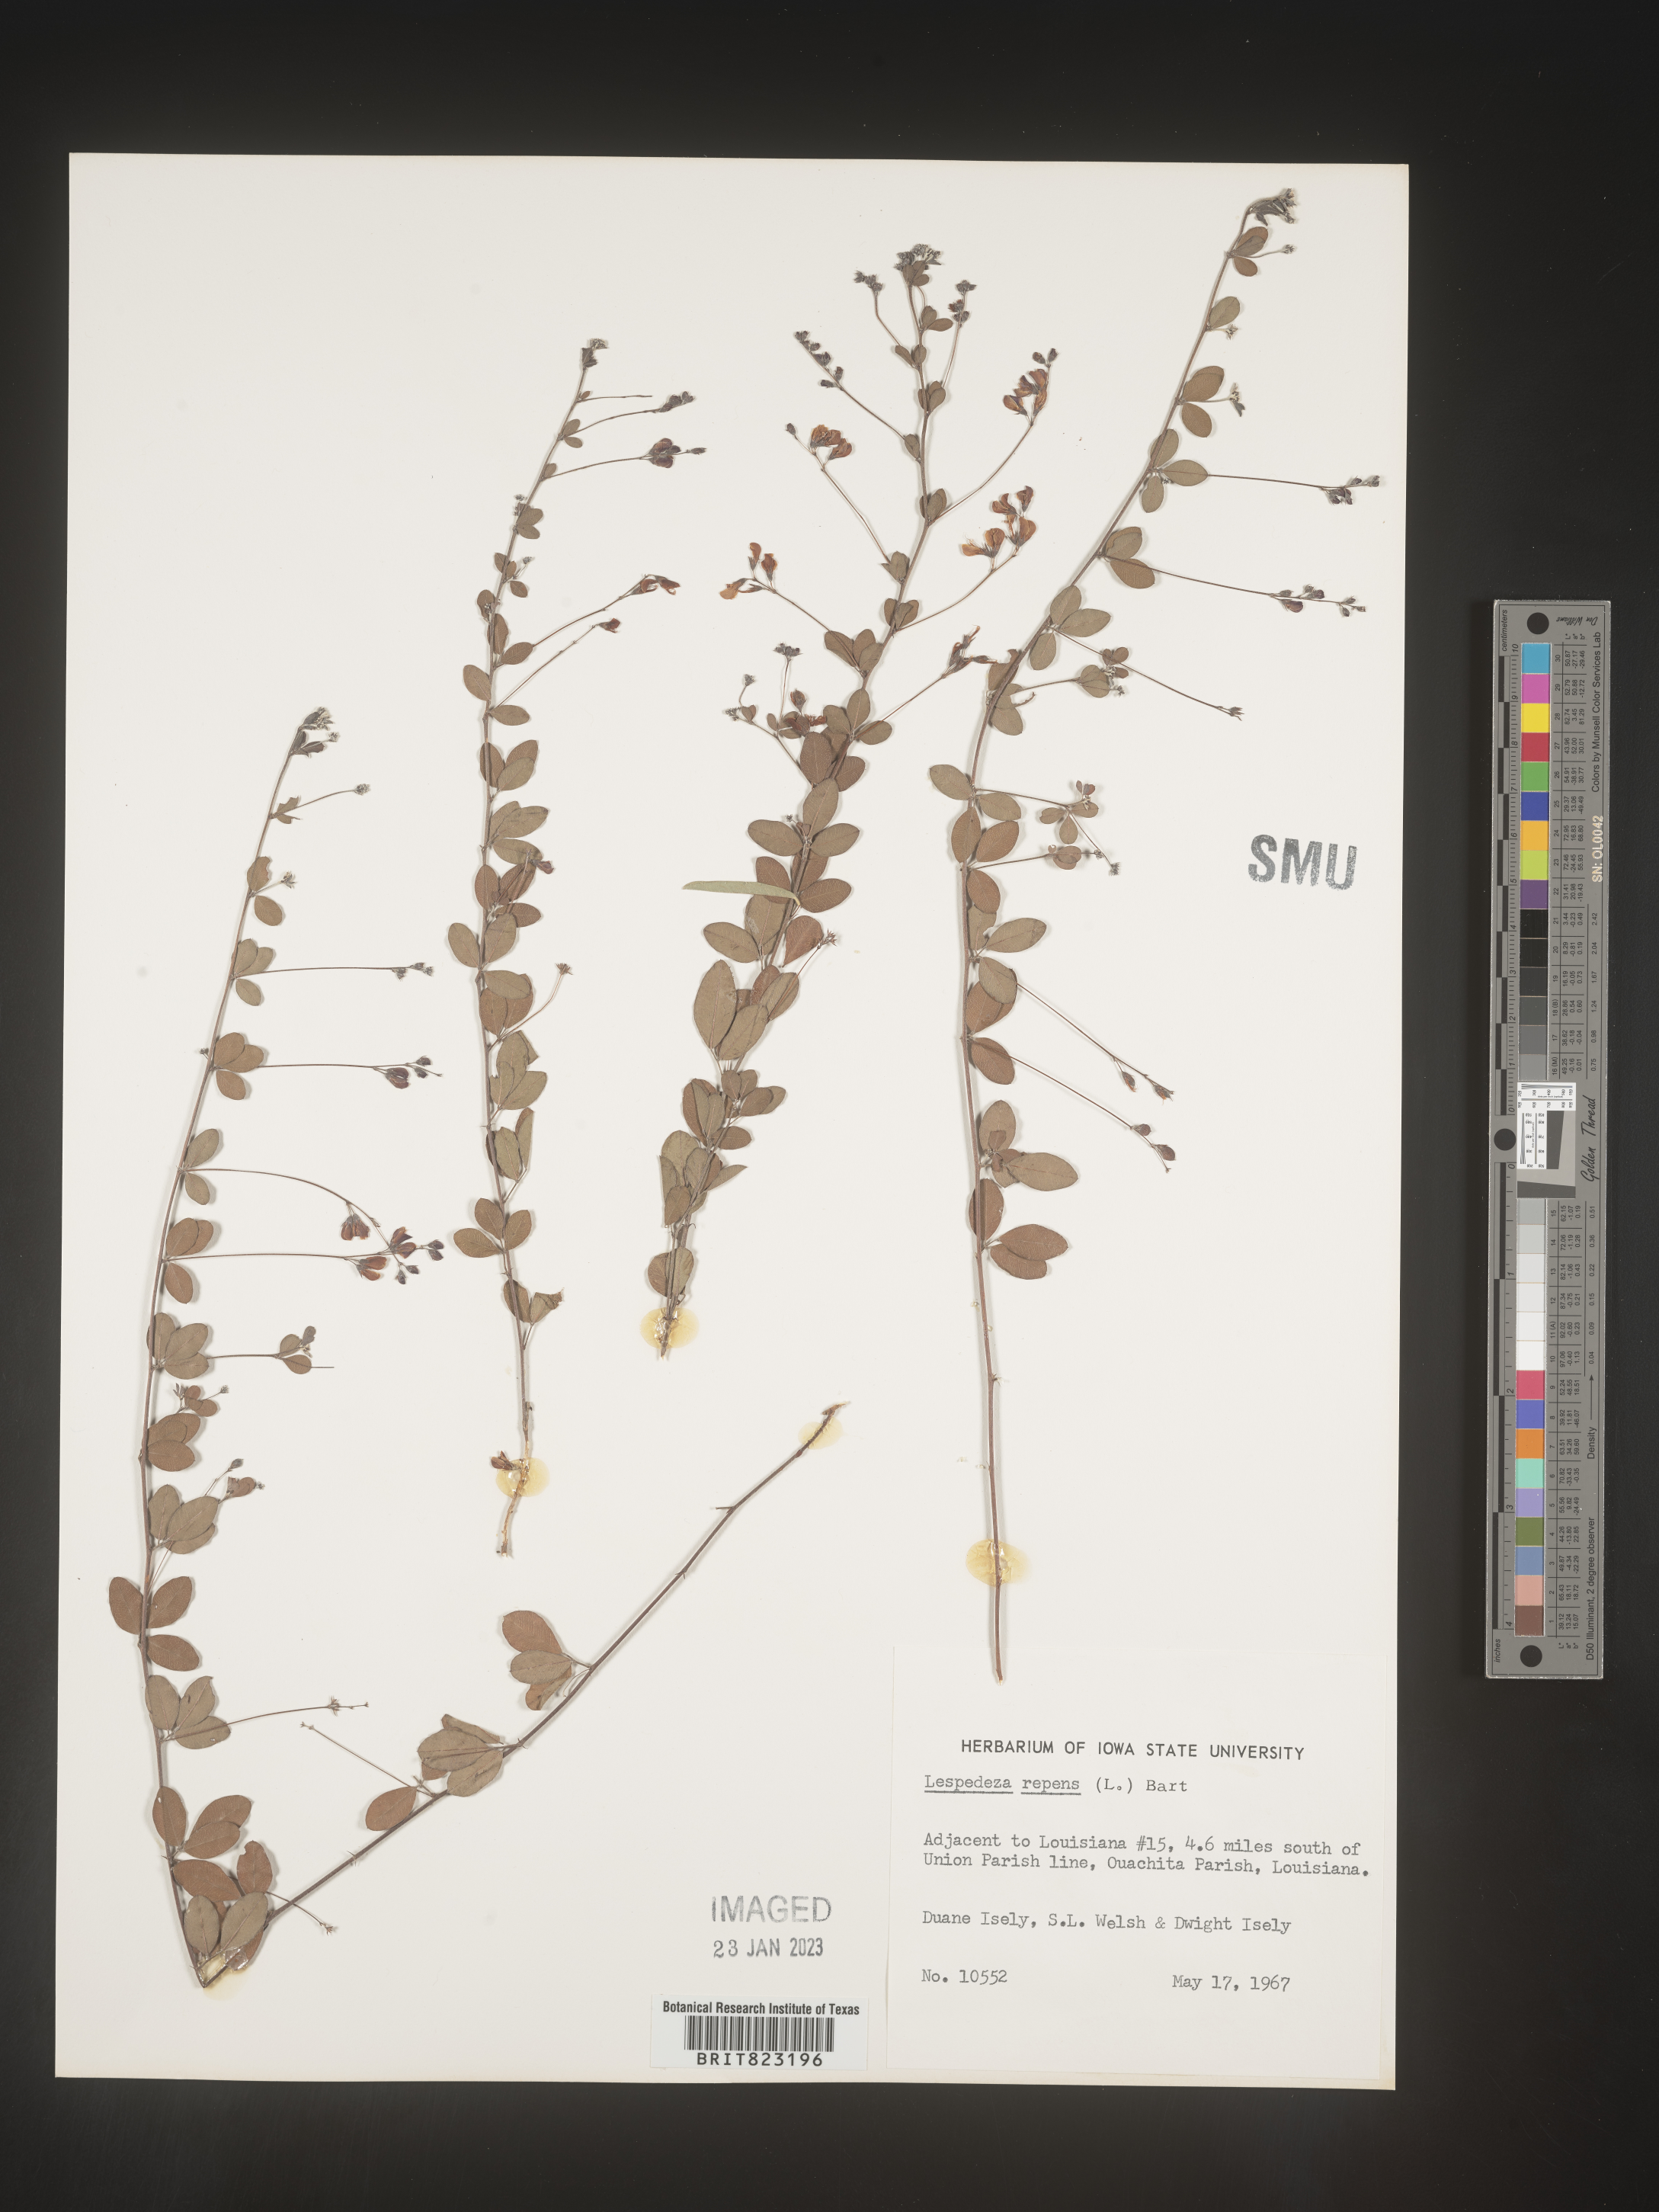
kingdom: Plantae
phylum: Tracheophyta
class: Magnoliopsida
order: Fabales
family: Fabaceae
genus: Lespedeza
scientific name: Lespedeza repens
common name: Creeping bush-clover
